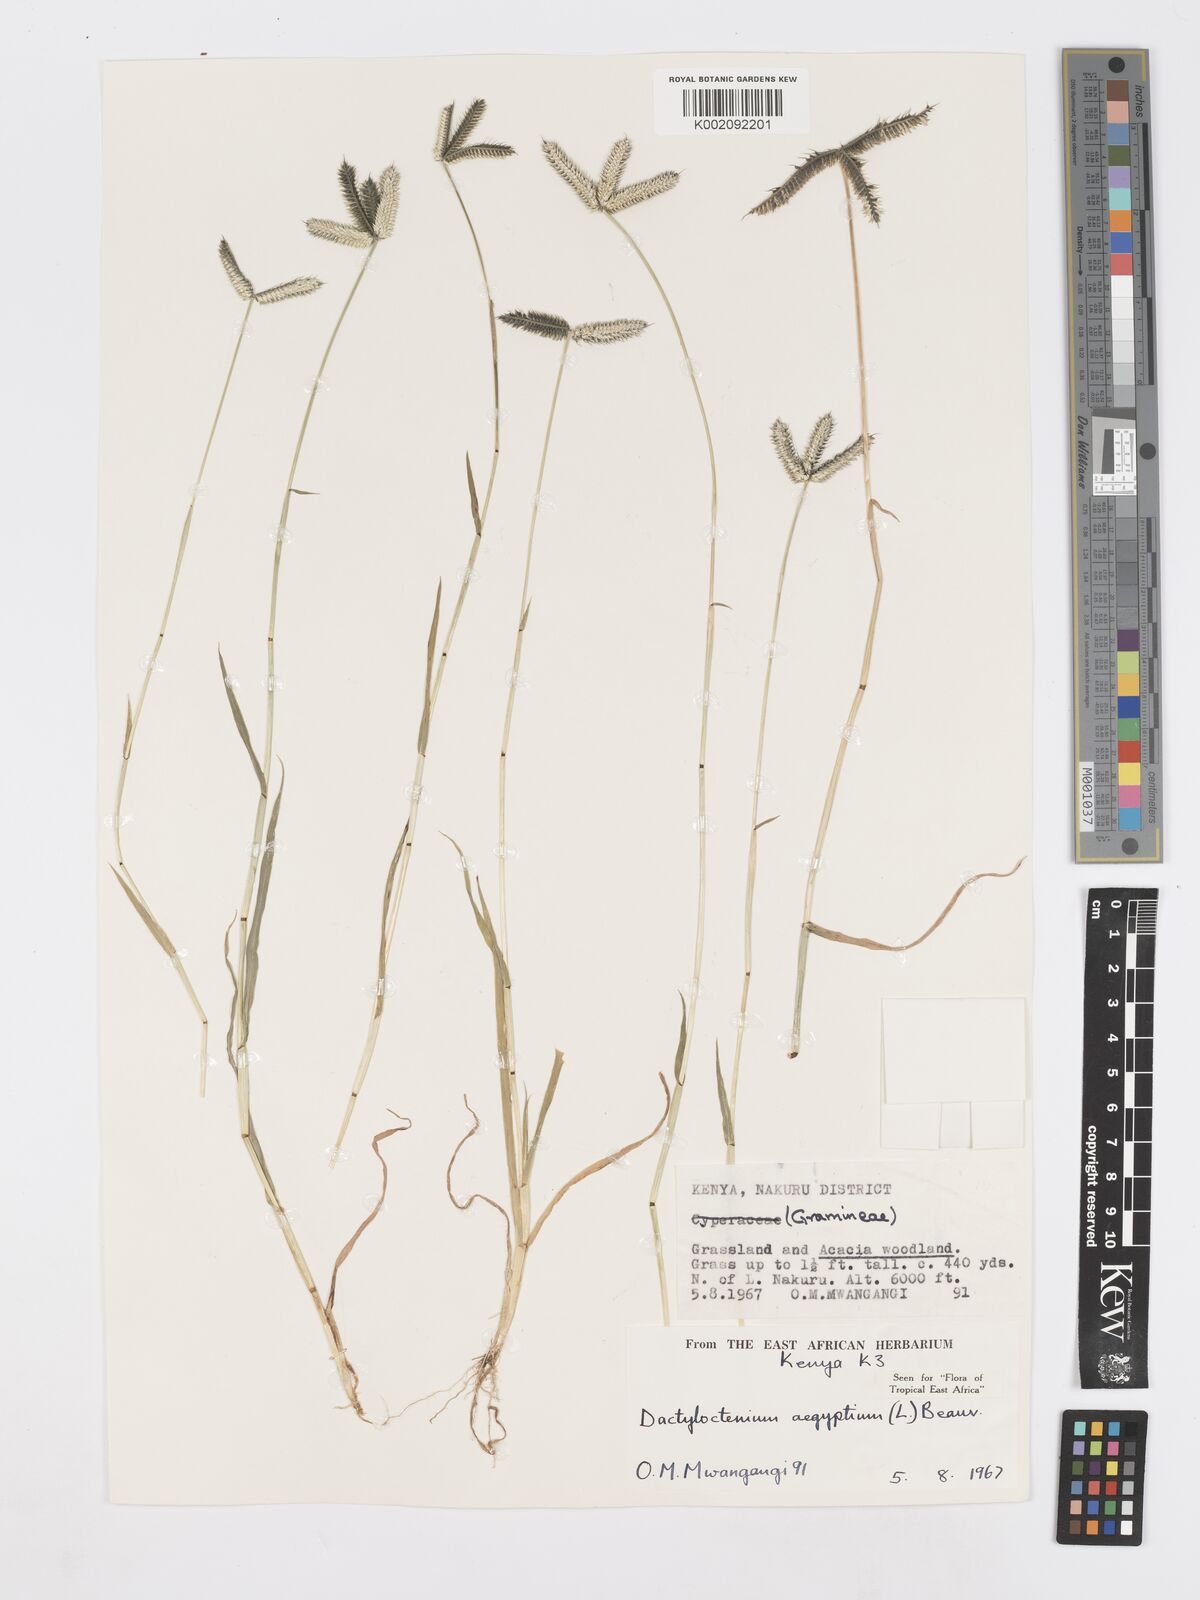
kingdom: Plantae
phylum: Tracheophyta
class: Liliopsida
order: Poales
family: Poaceae
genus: Dactyloctenium
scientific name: Dactyloctenium aegyptium
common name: Egyptian grass
